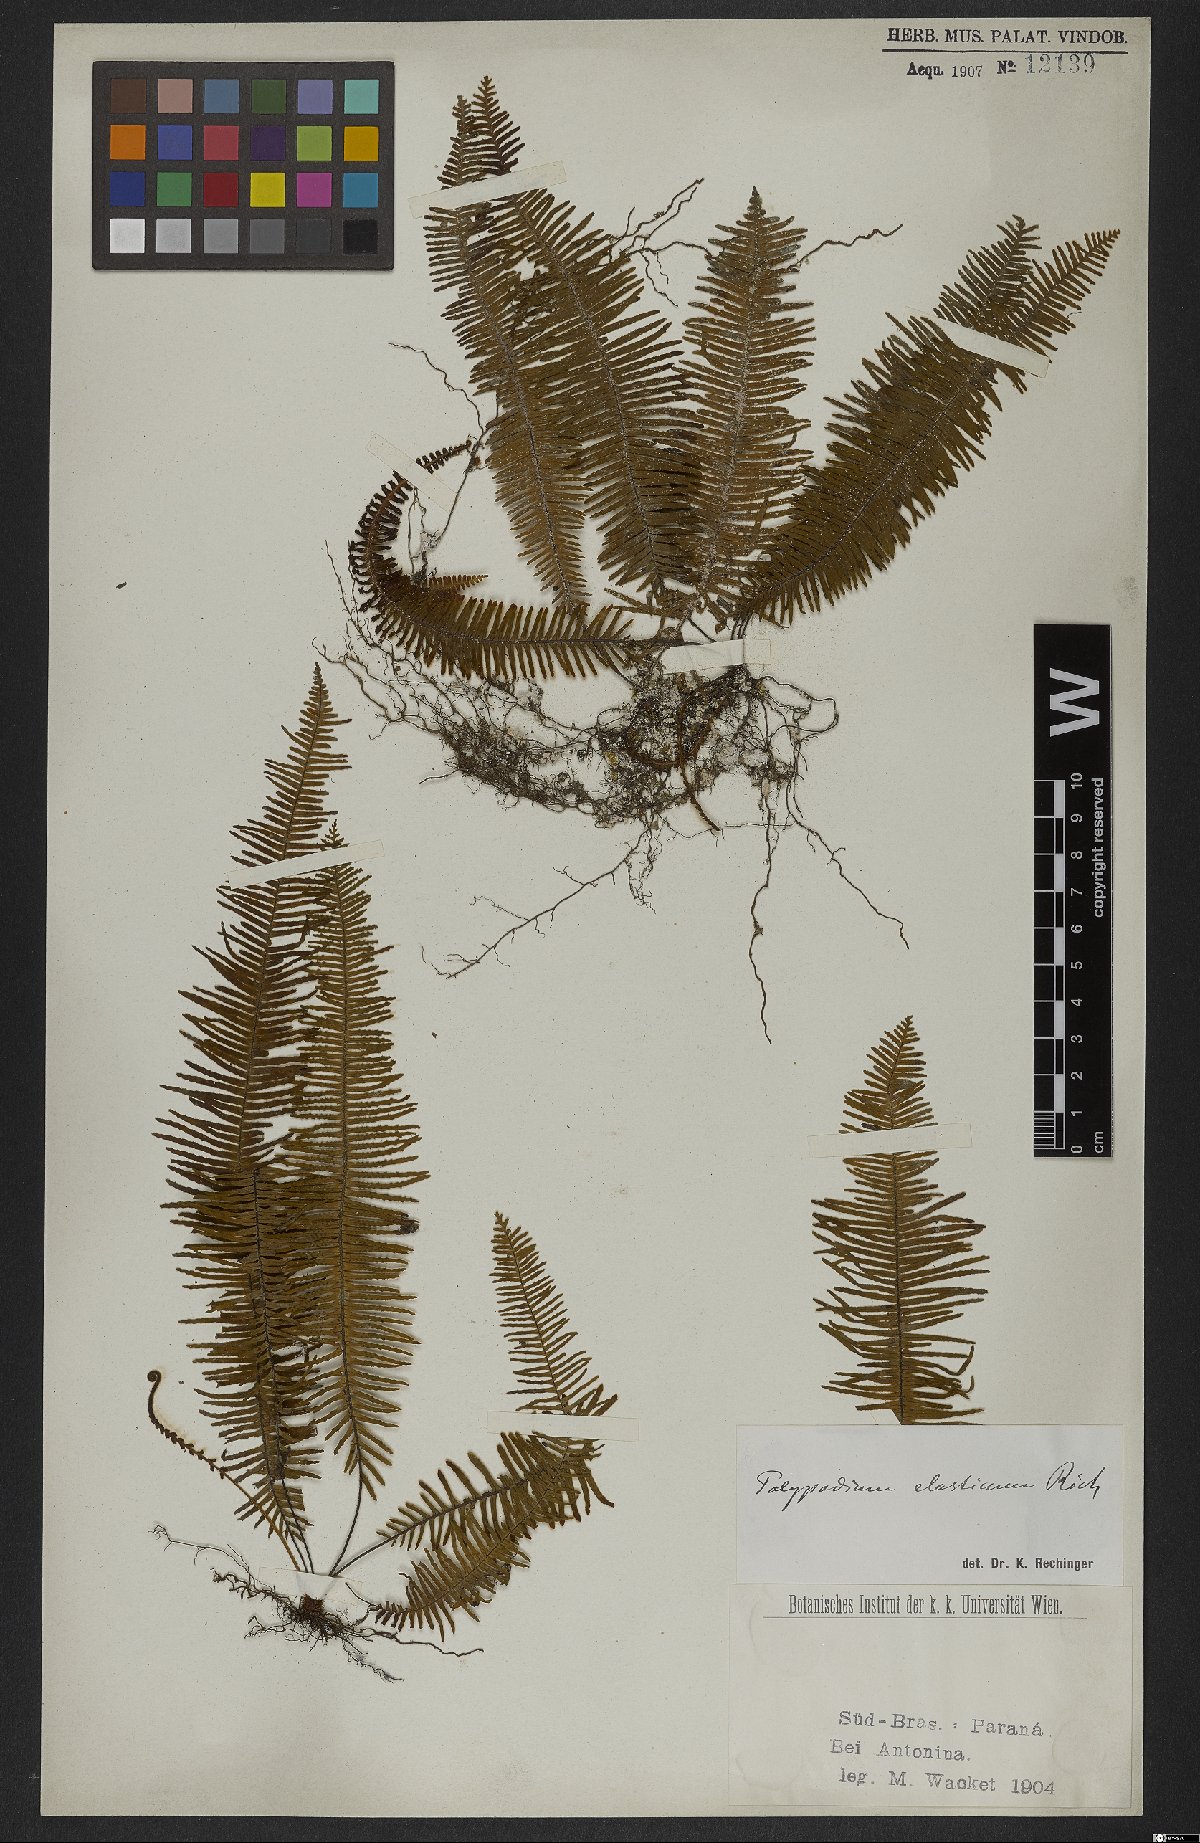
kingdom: Plantae
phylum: Tracheophyta
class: Polypodiopsida
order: Polypodiales
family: Polypodiaceae
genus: Pecluma
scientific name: Pecluma plumula
